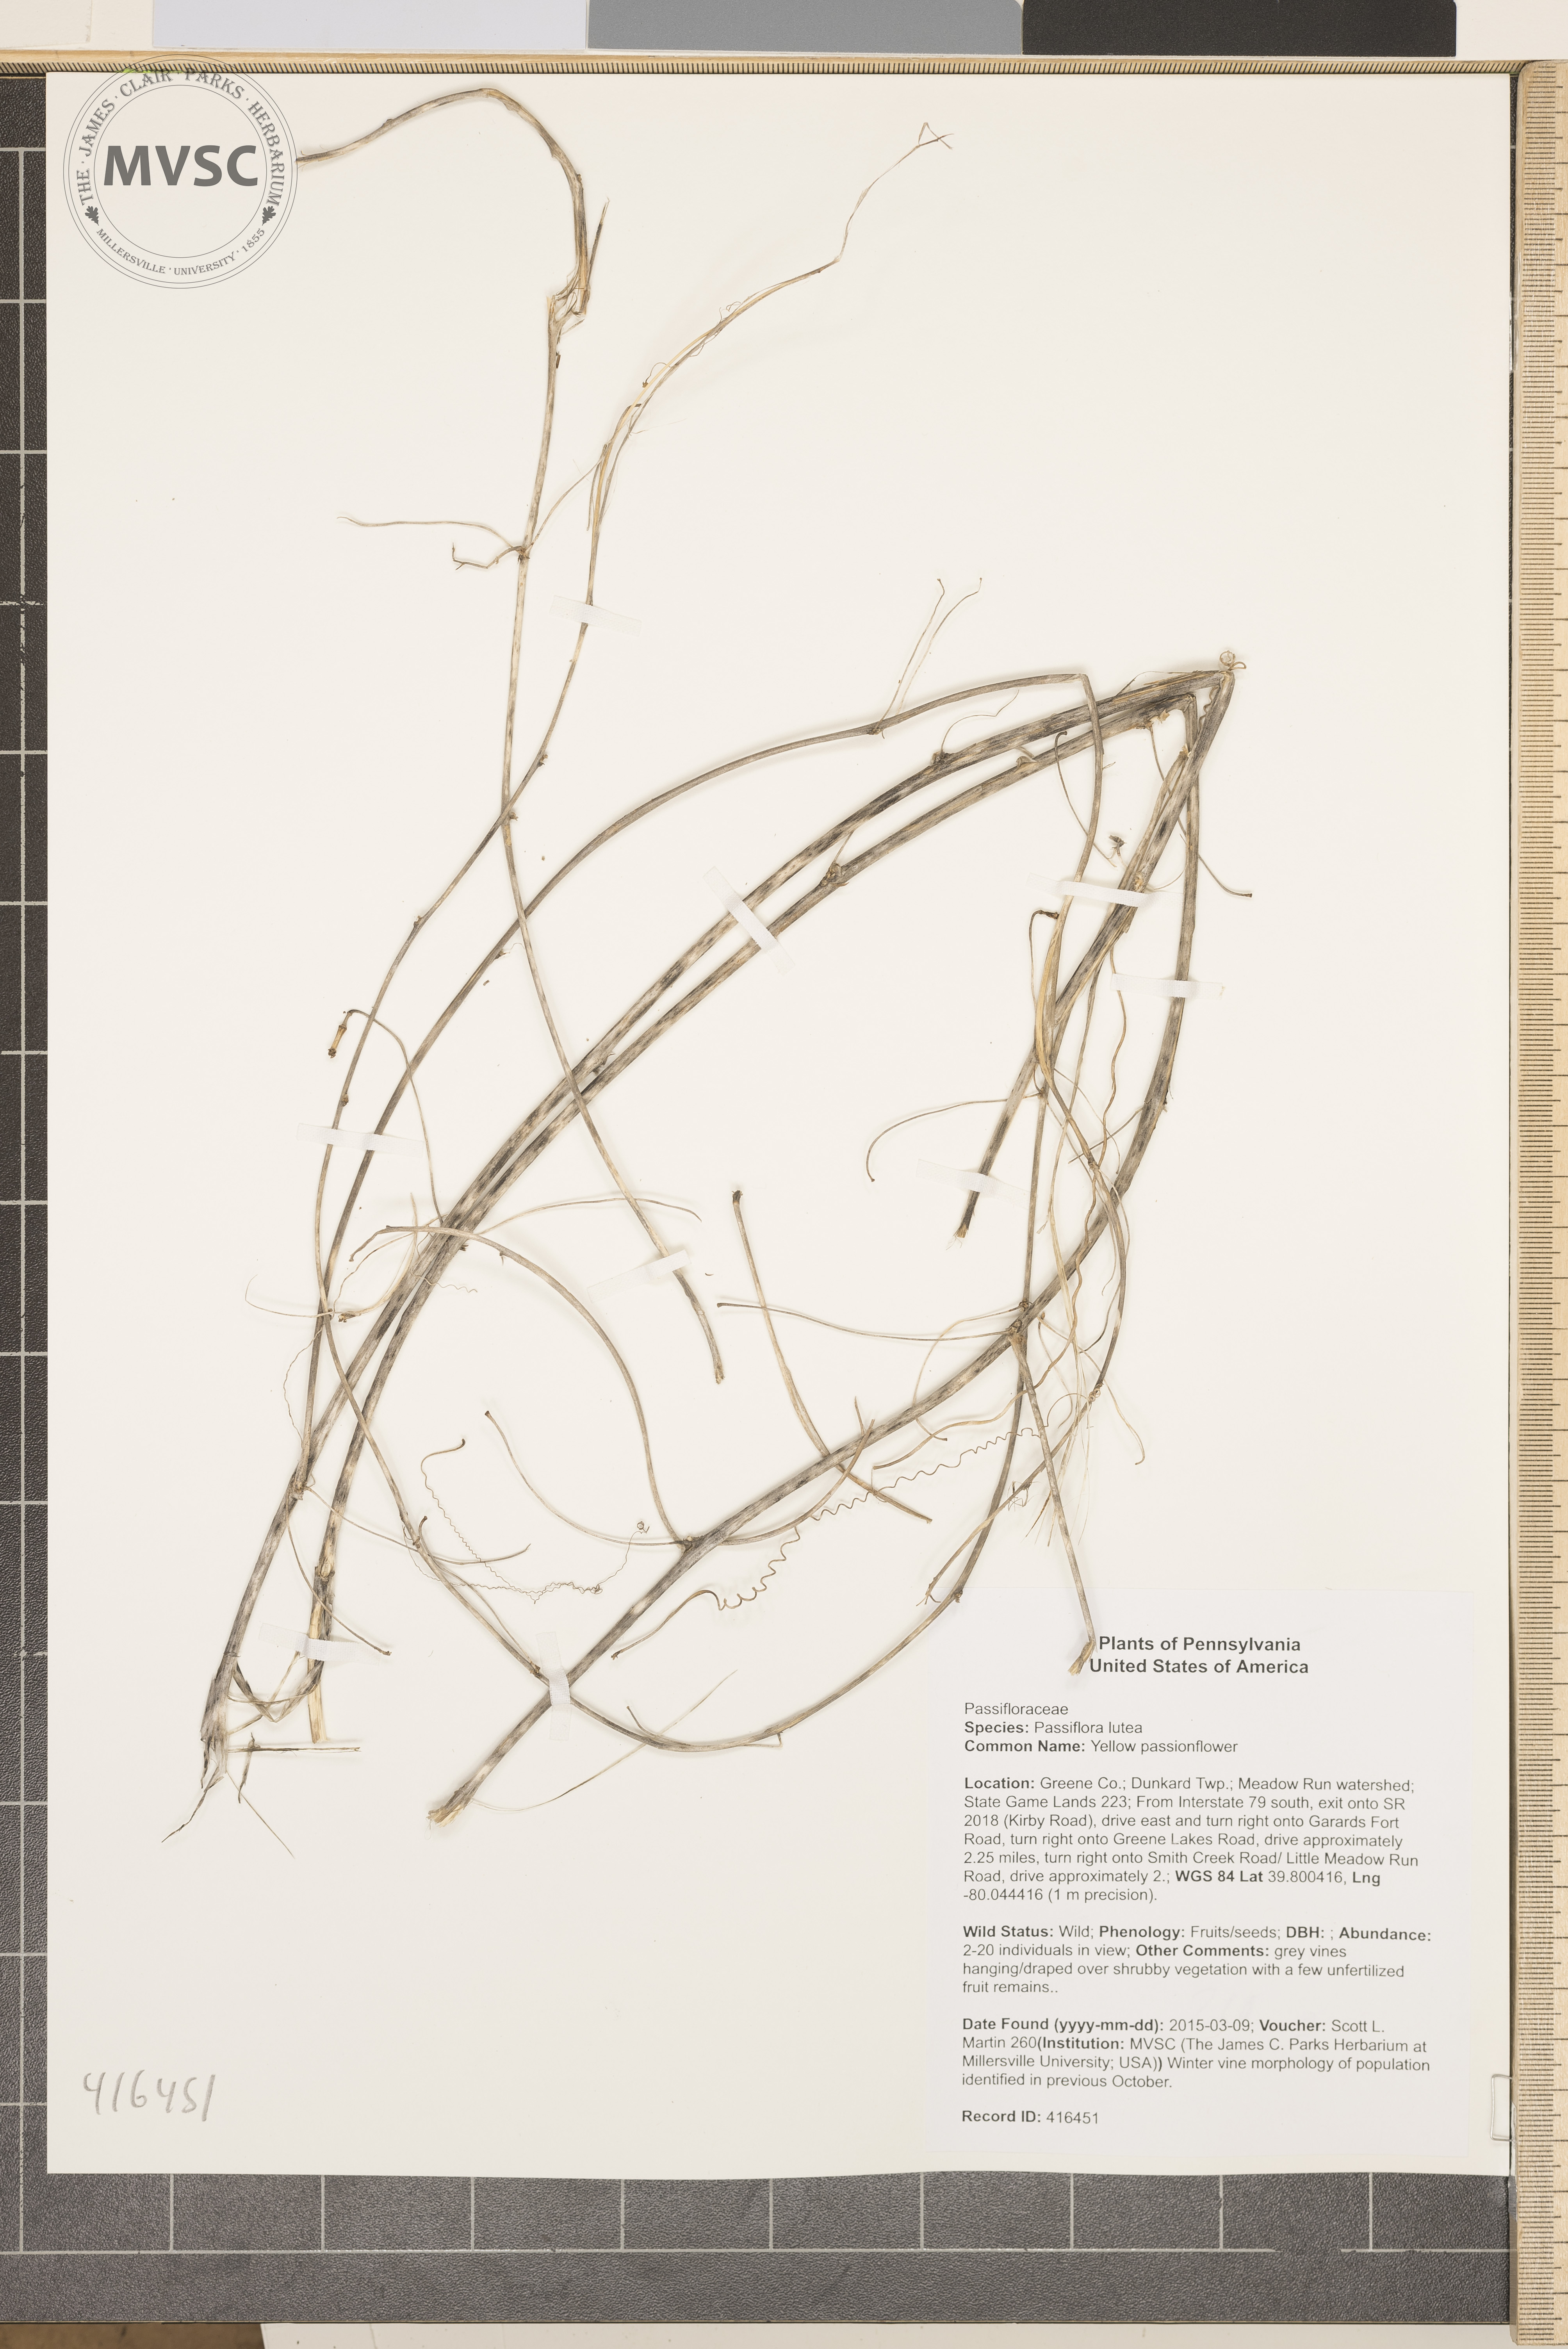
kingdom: Plantae
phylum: Tracheophyta
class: Magnoliopsida
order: Malpighiales
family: Passifloraceae
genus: Passiflora
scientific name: Passiflora lutea
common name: Yellow passionflower
